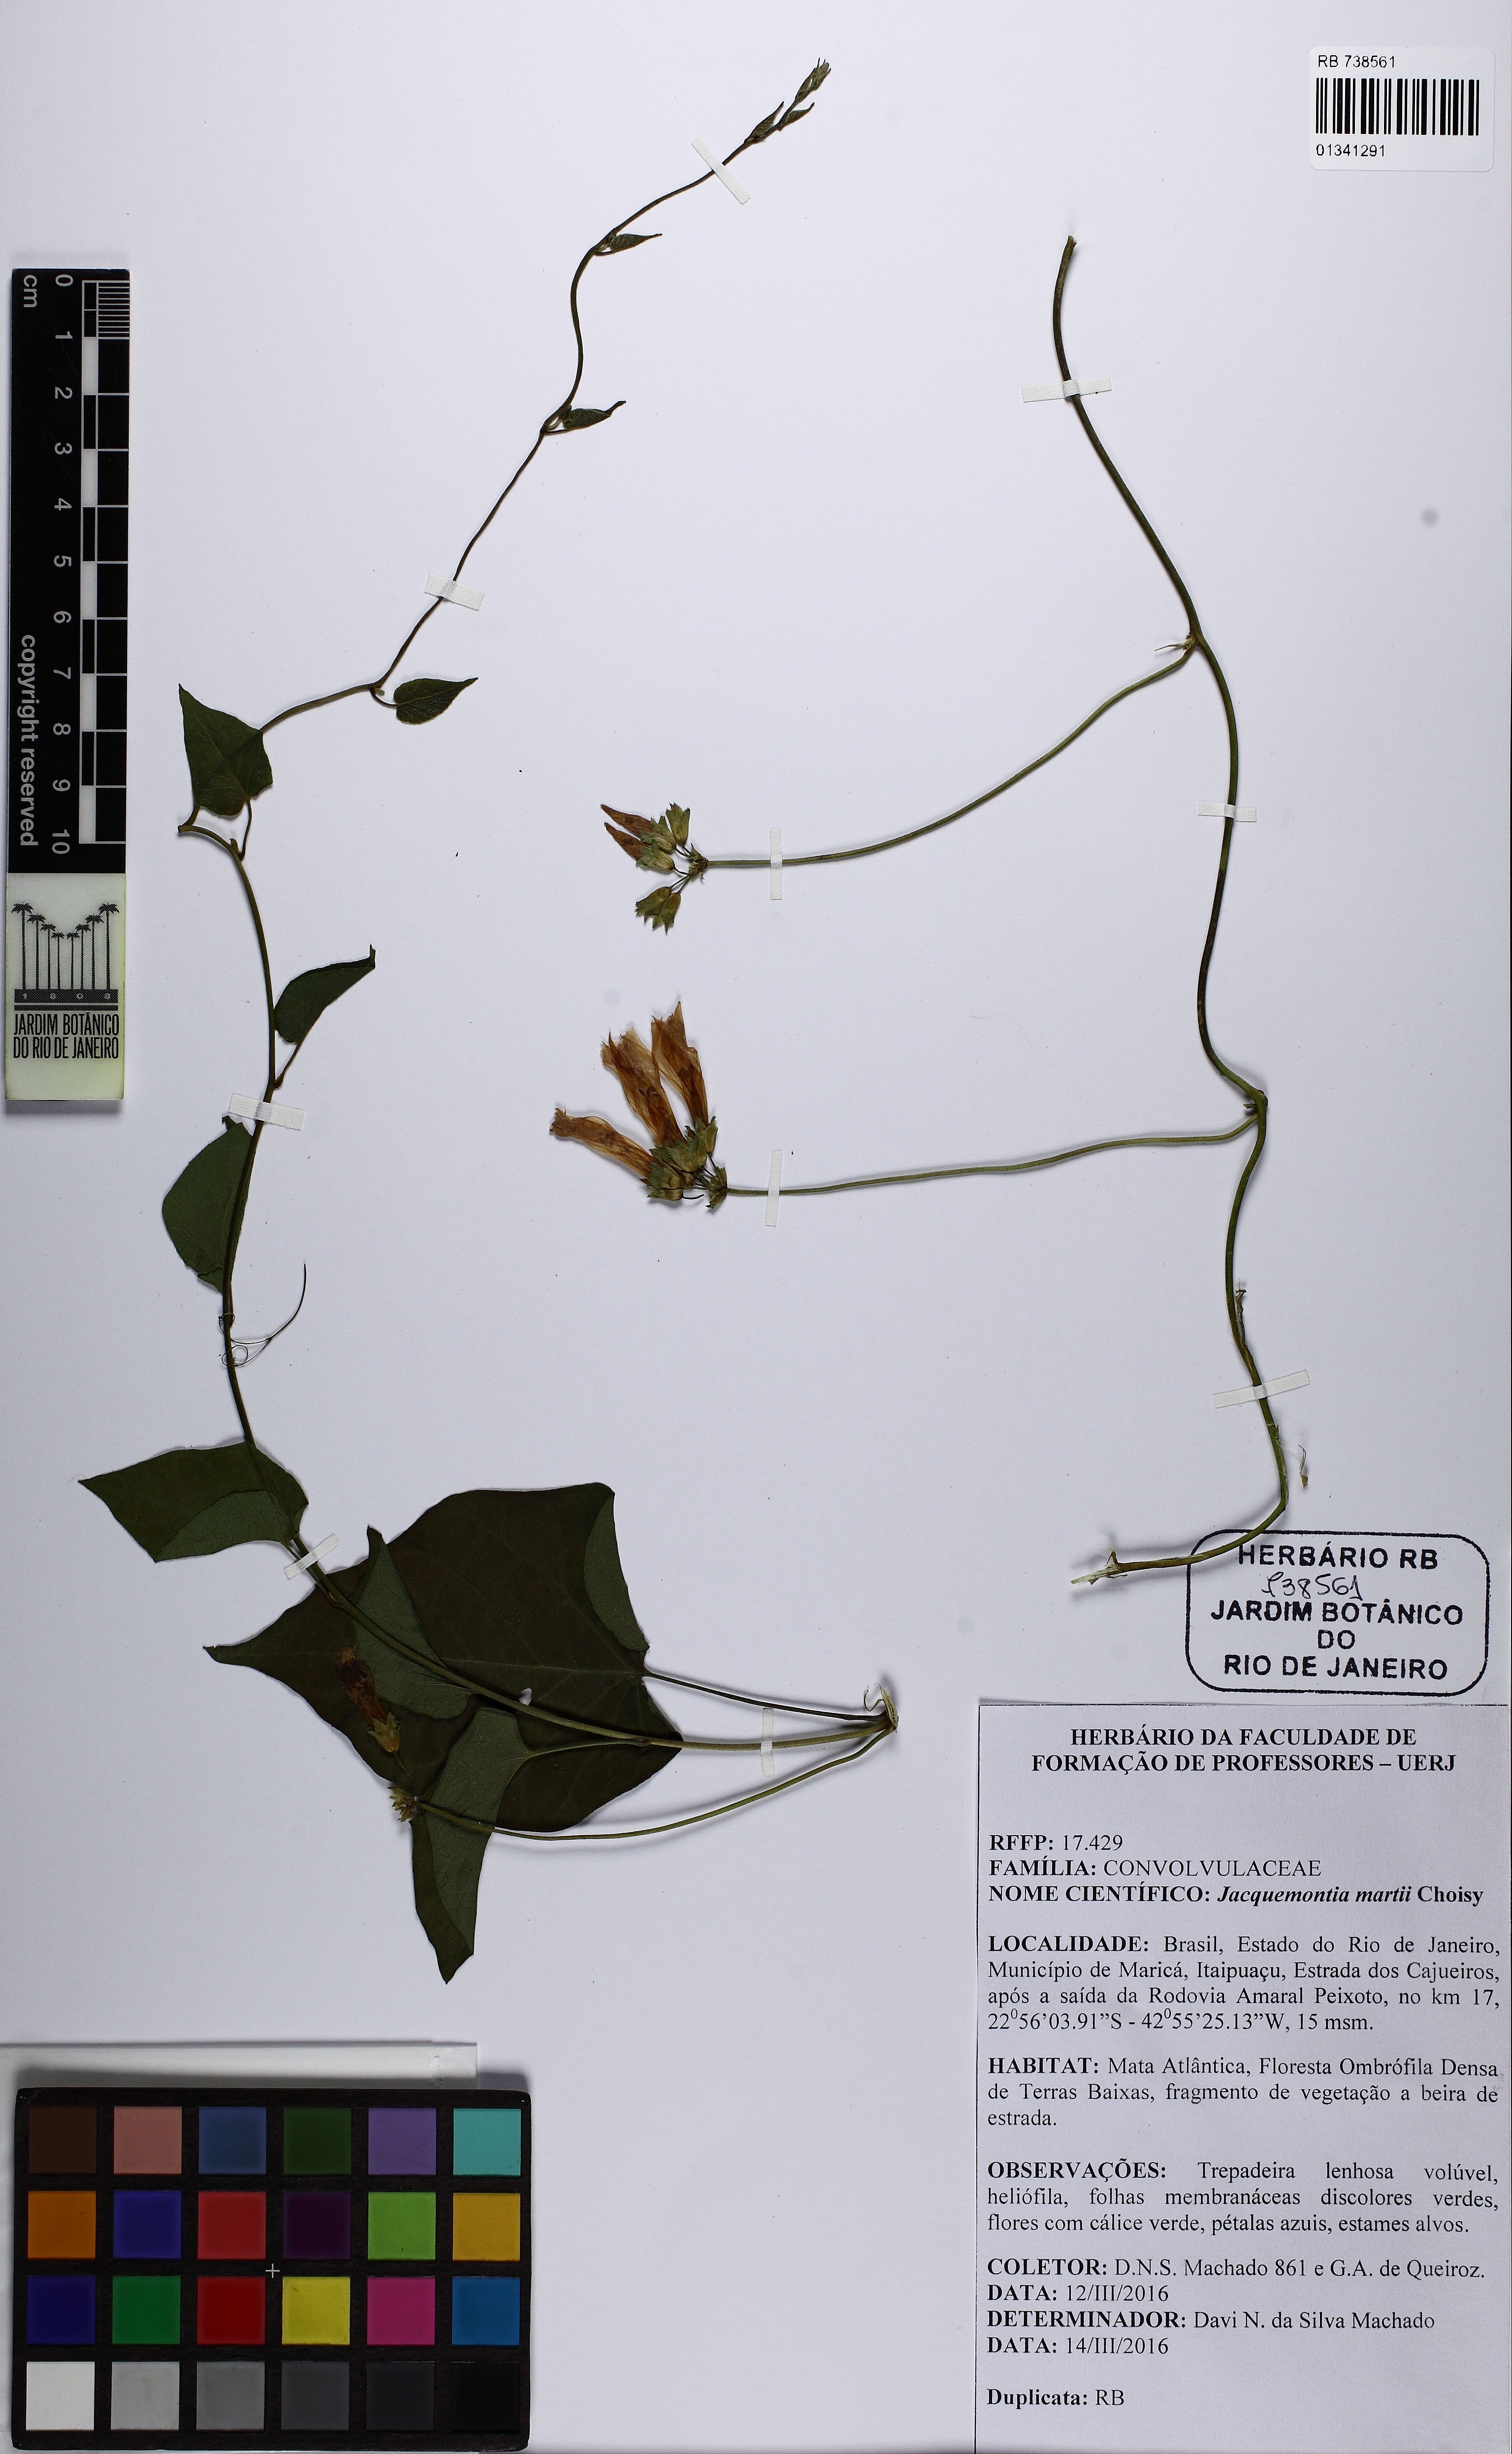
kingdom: Plantae
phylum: Tracheophyta
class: Magnoliopsida
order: Solanales
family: Convolvulaceae
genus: Jacquemontia
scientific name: Jacquemontia martii
